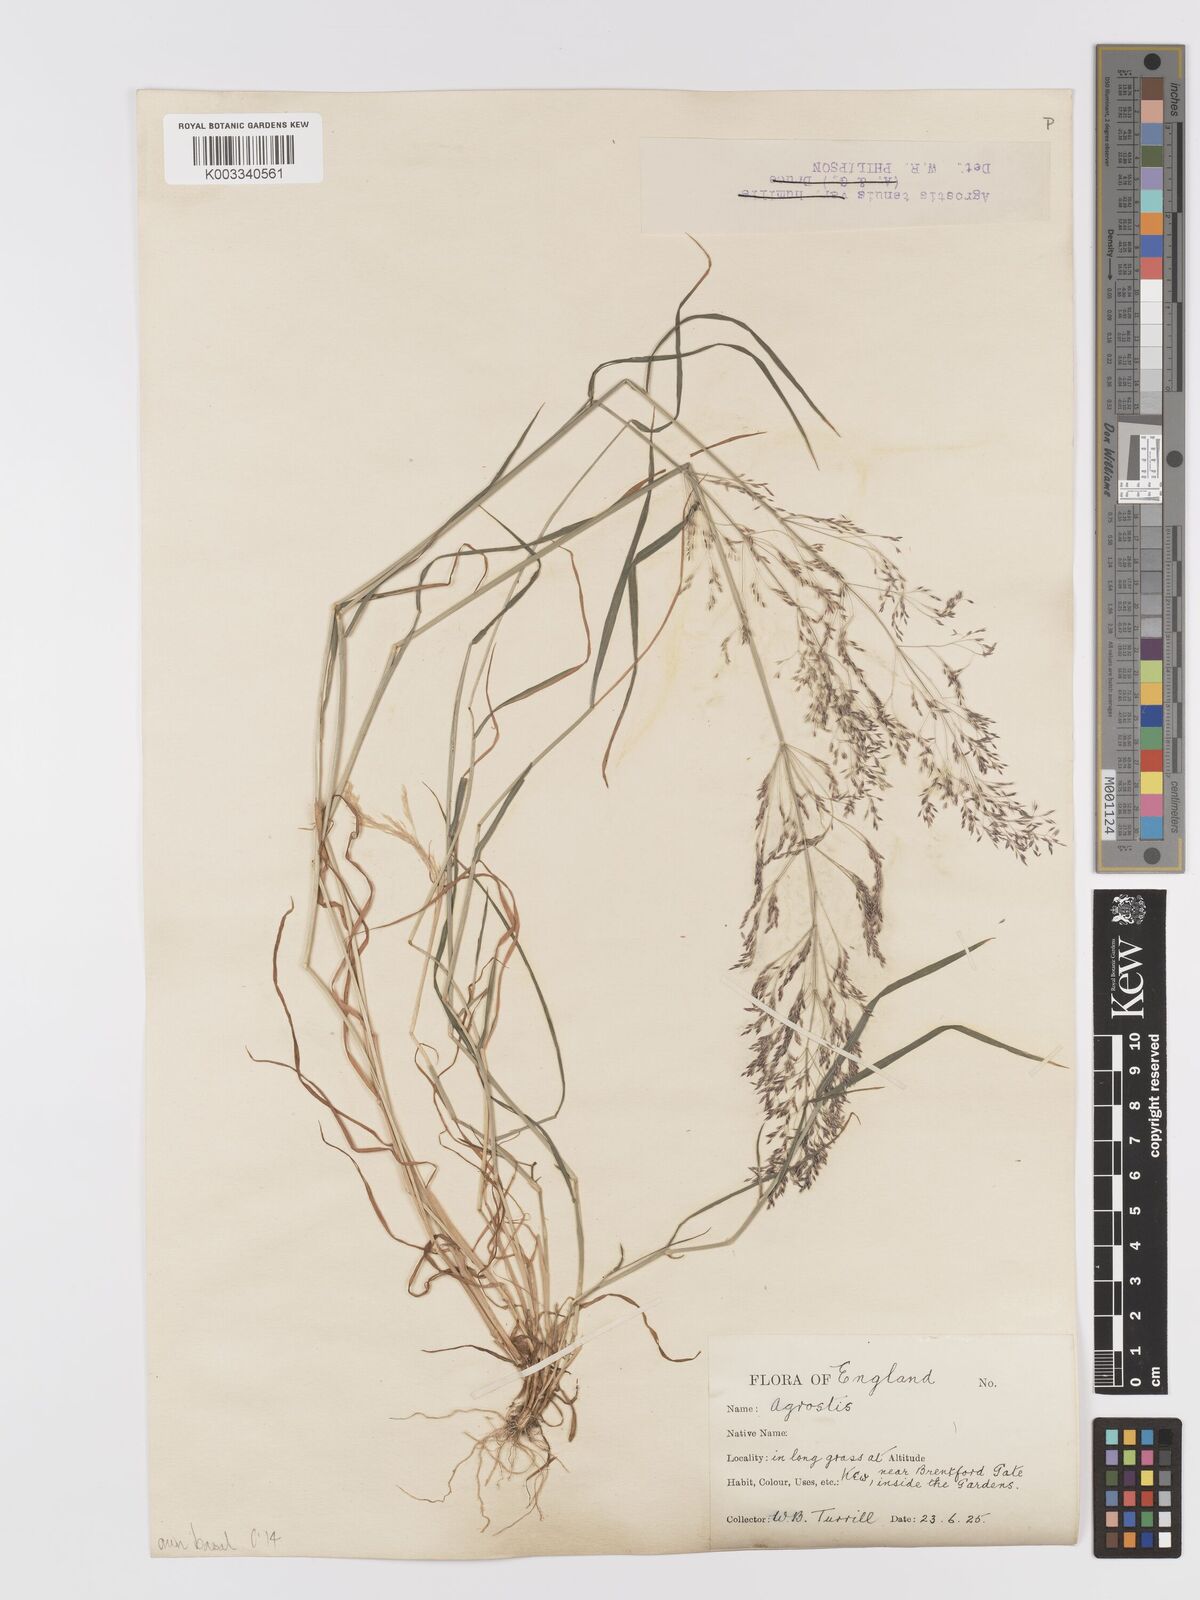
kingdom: Plantae
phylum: Tracheophyta
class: Liliopsida
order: Poales
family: Poaceae
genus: Agrostis
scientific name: Agrostis capillaris
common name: Colonial bentgrass
